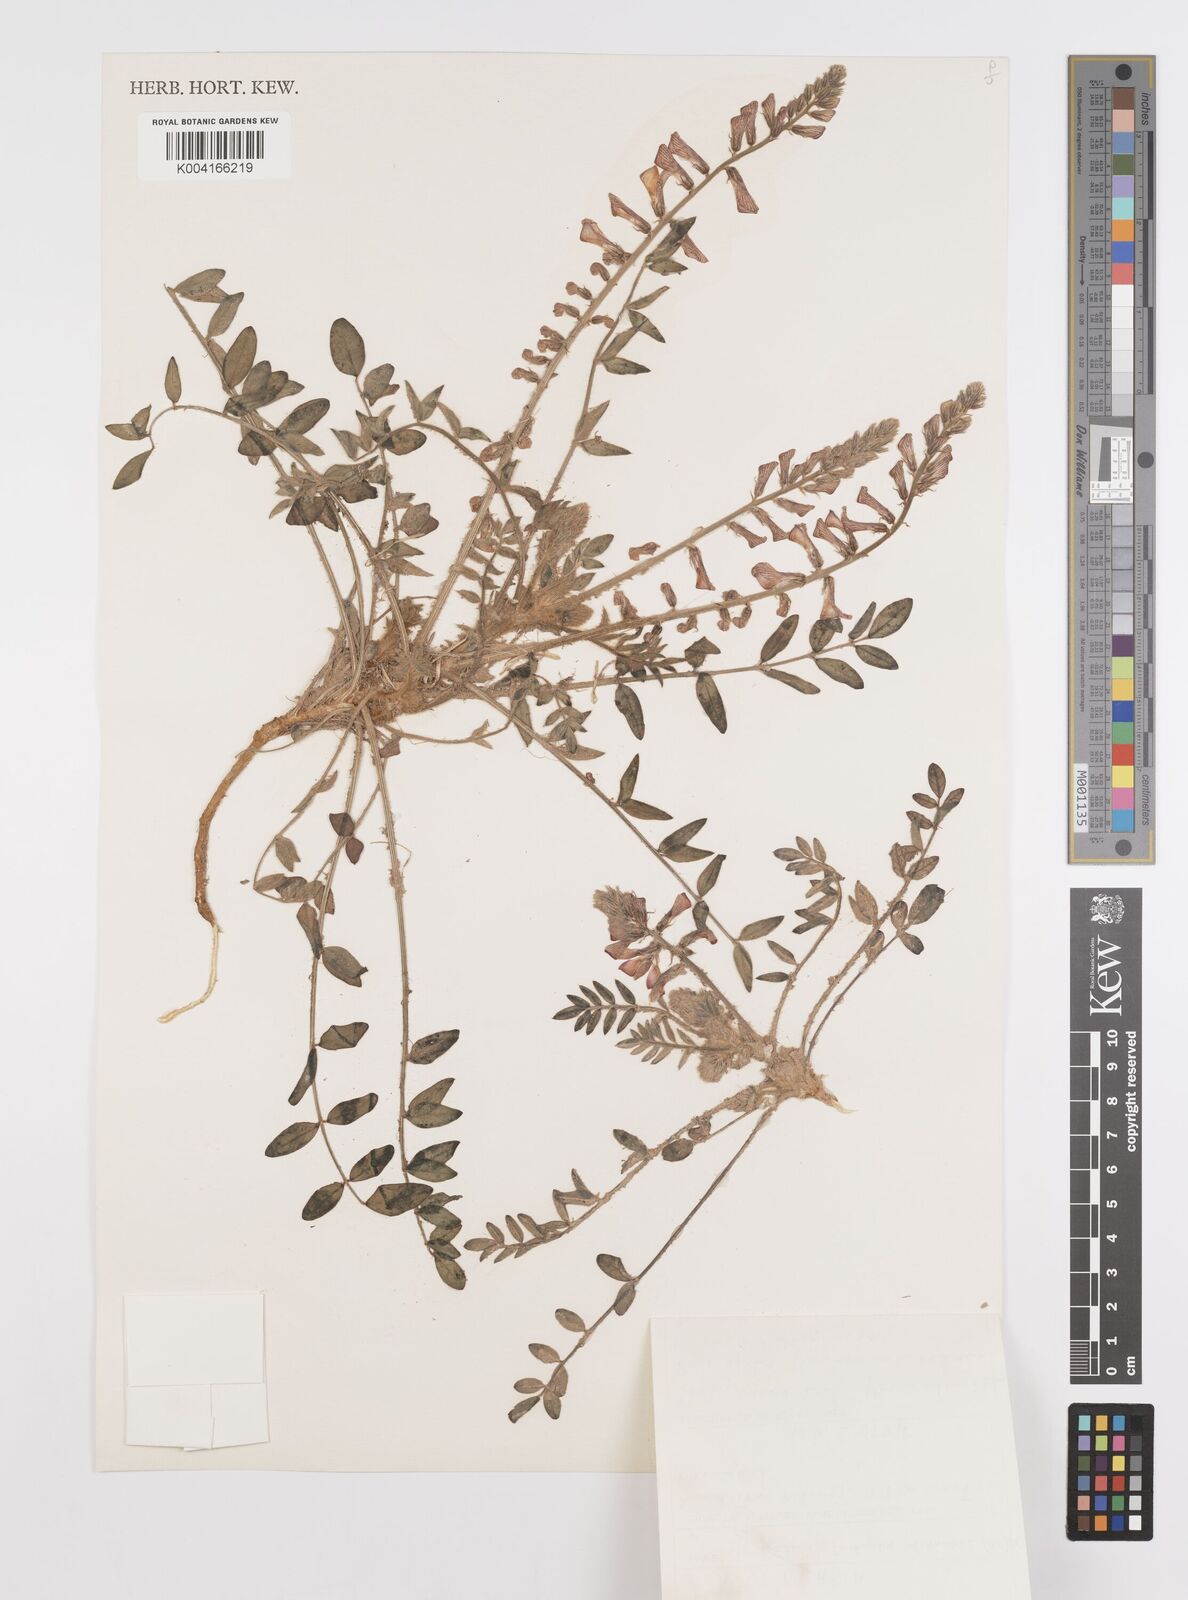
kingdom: Plantae
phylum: Tracheophyta
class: Magnoliopsida
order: Fabales
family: Fabaceae
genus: Onobrychis
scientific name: Onobrychis ptolemaica
